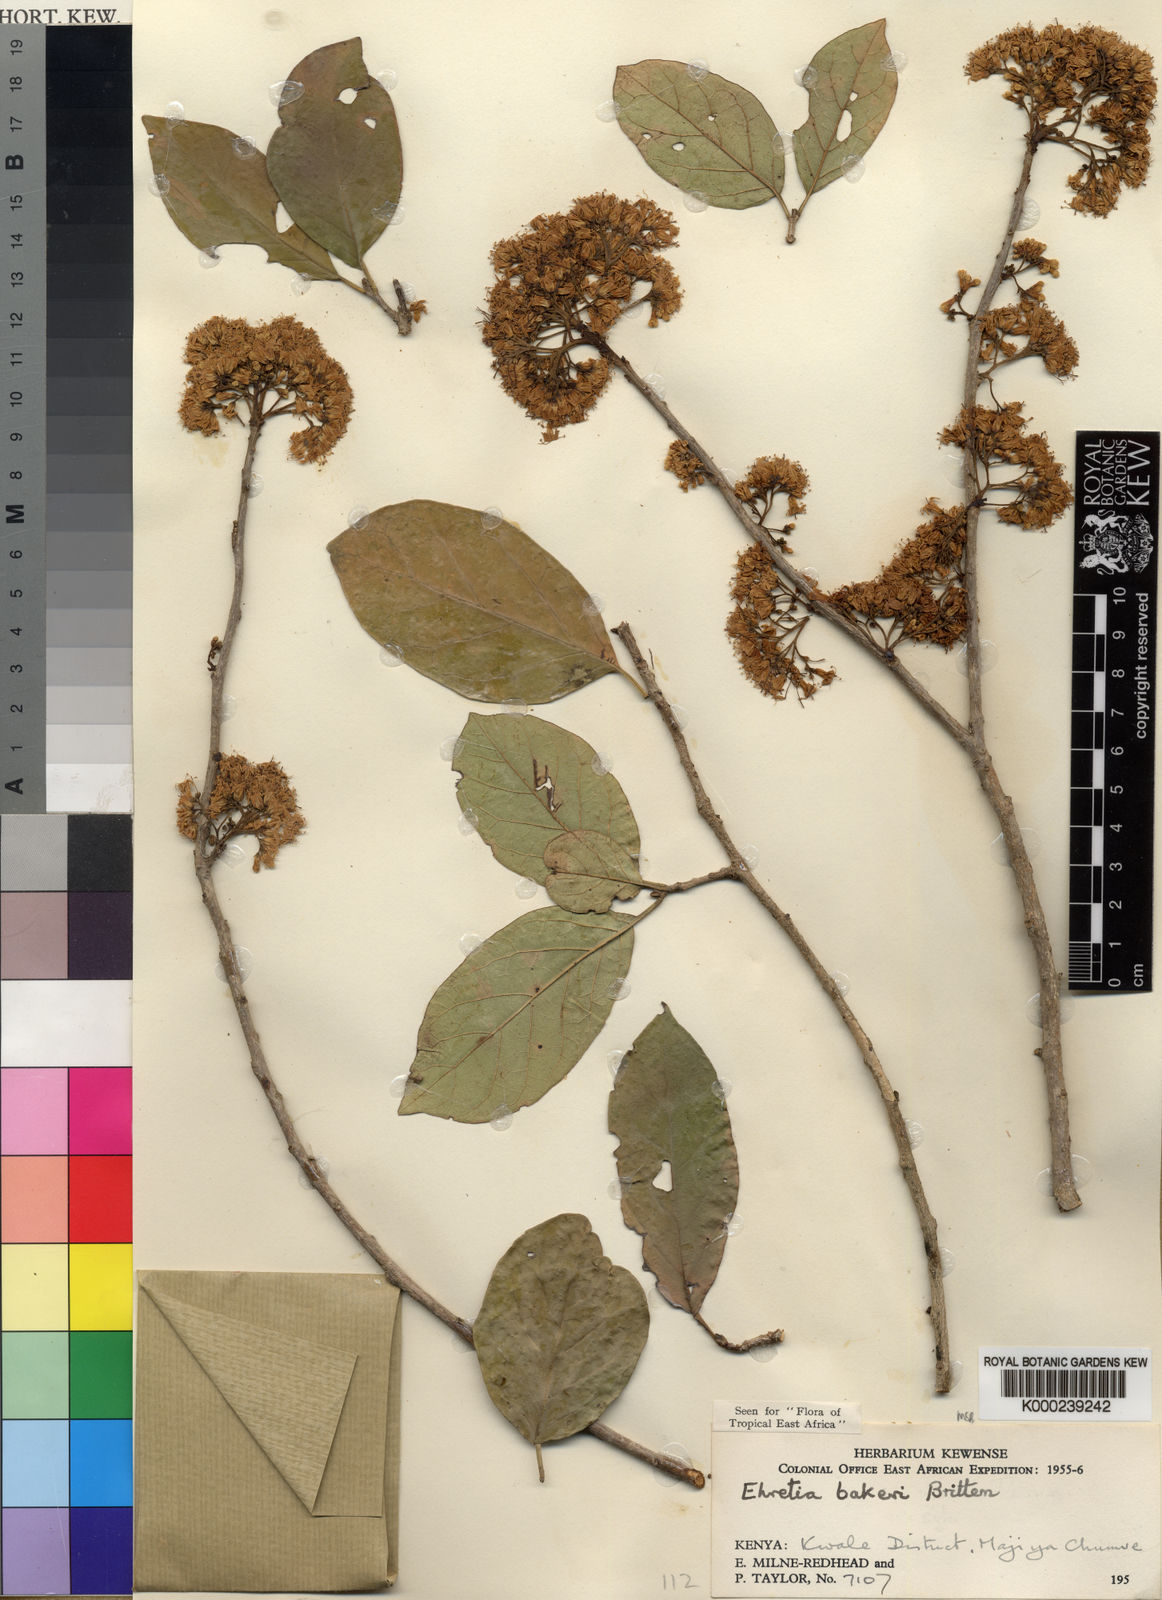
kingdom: Plantae
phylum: Tracheophyta
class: Magnoliopsida
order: Boraginales
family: Ehretiaceae
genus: Ehretia
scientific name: Ehretia
